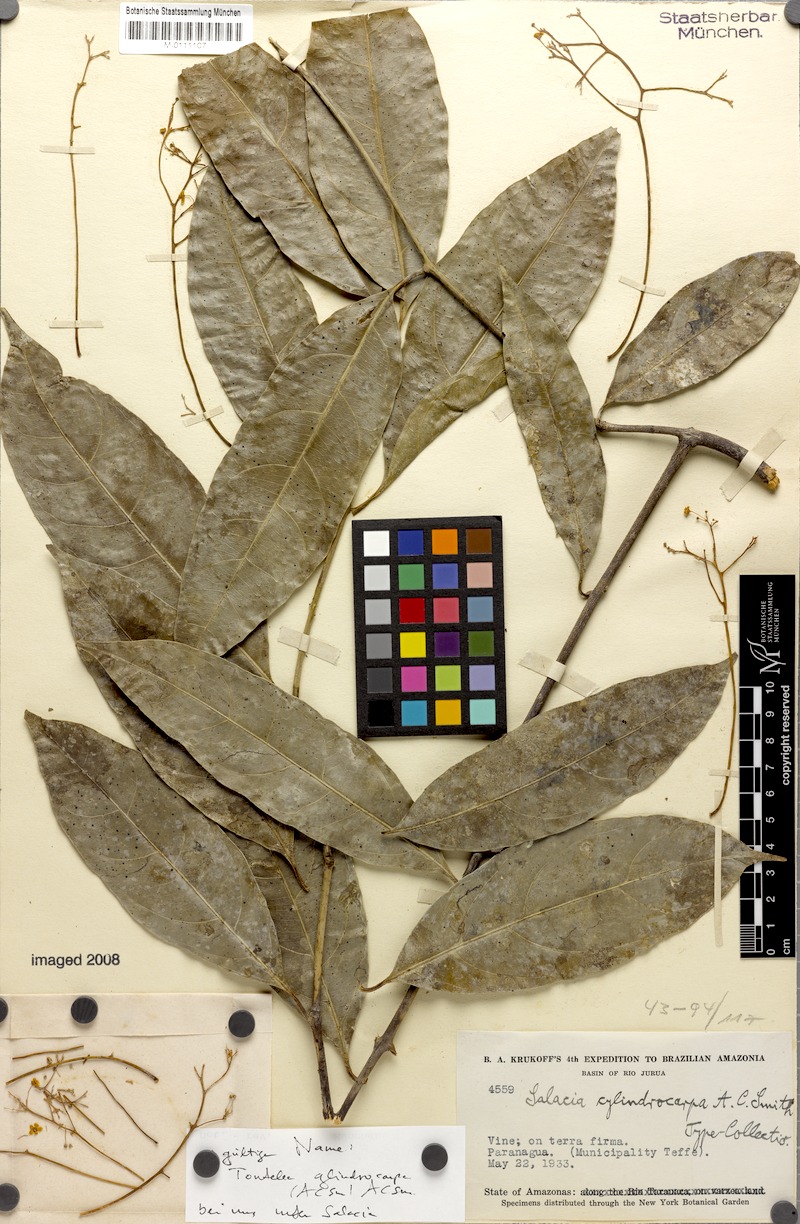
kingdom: Plantae
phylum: Tracheophyta
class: Magnoliopsida
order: Celastrales
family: Celastraceae
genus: Tontelea
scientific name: Tontelea cylindrocarpa
